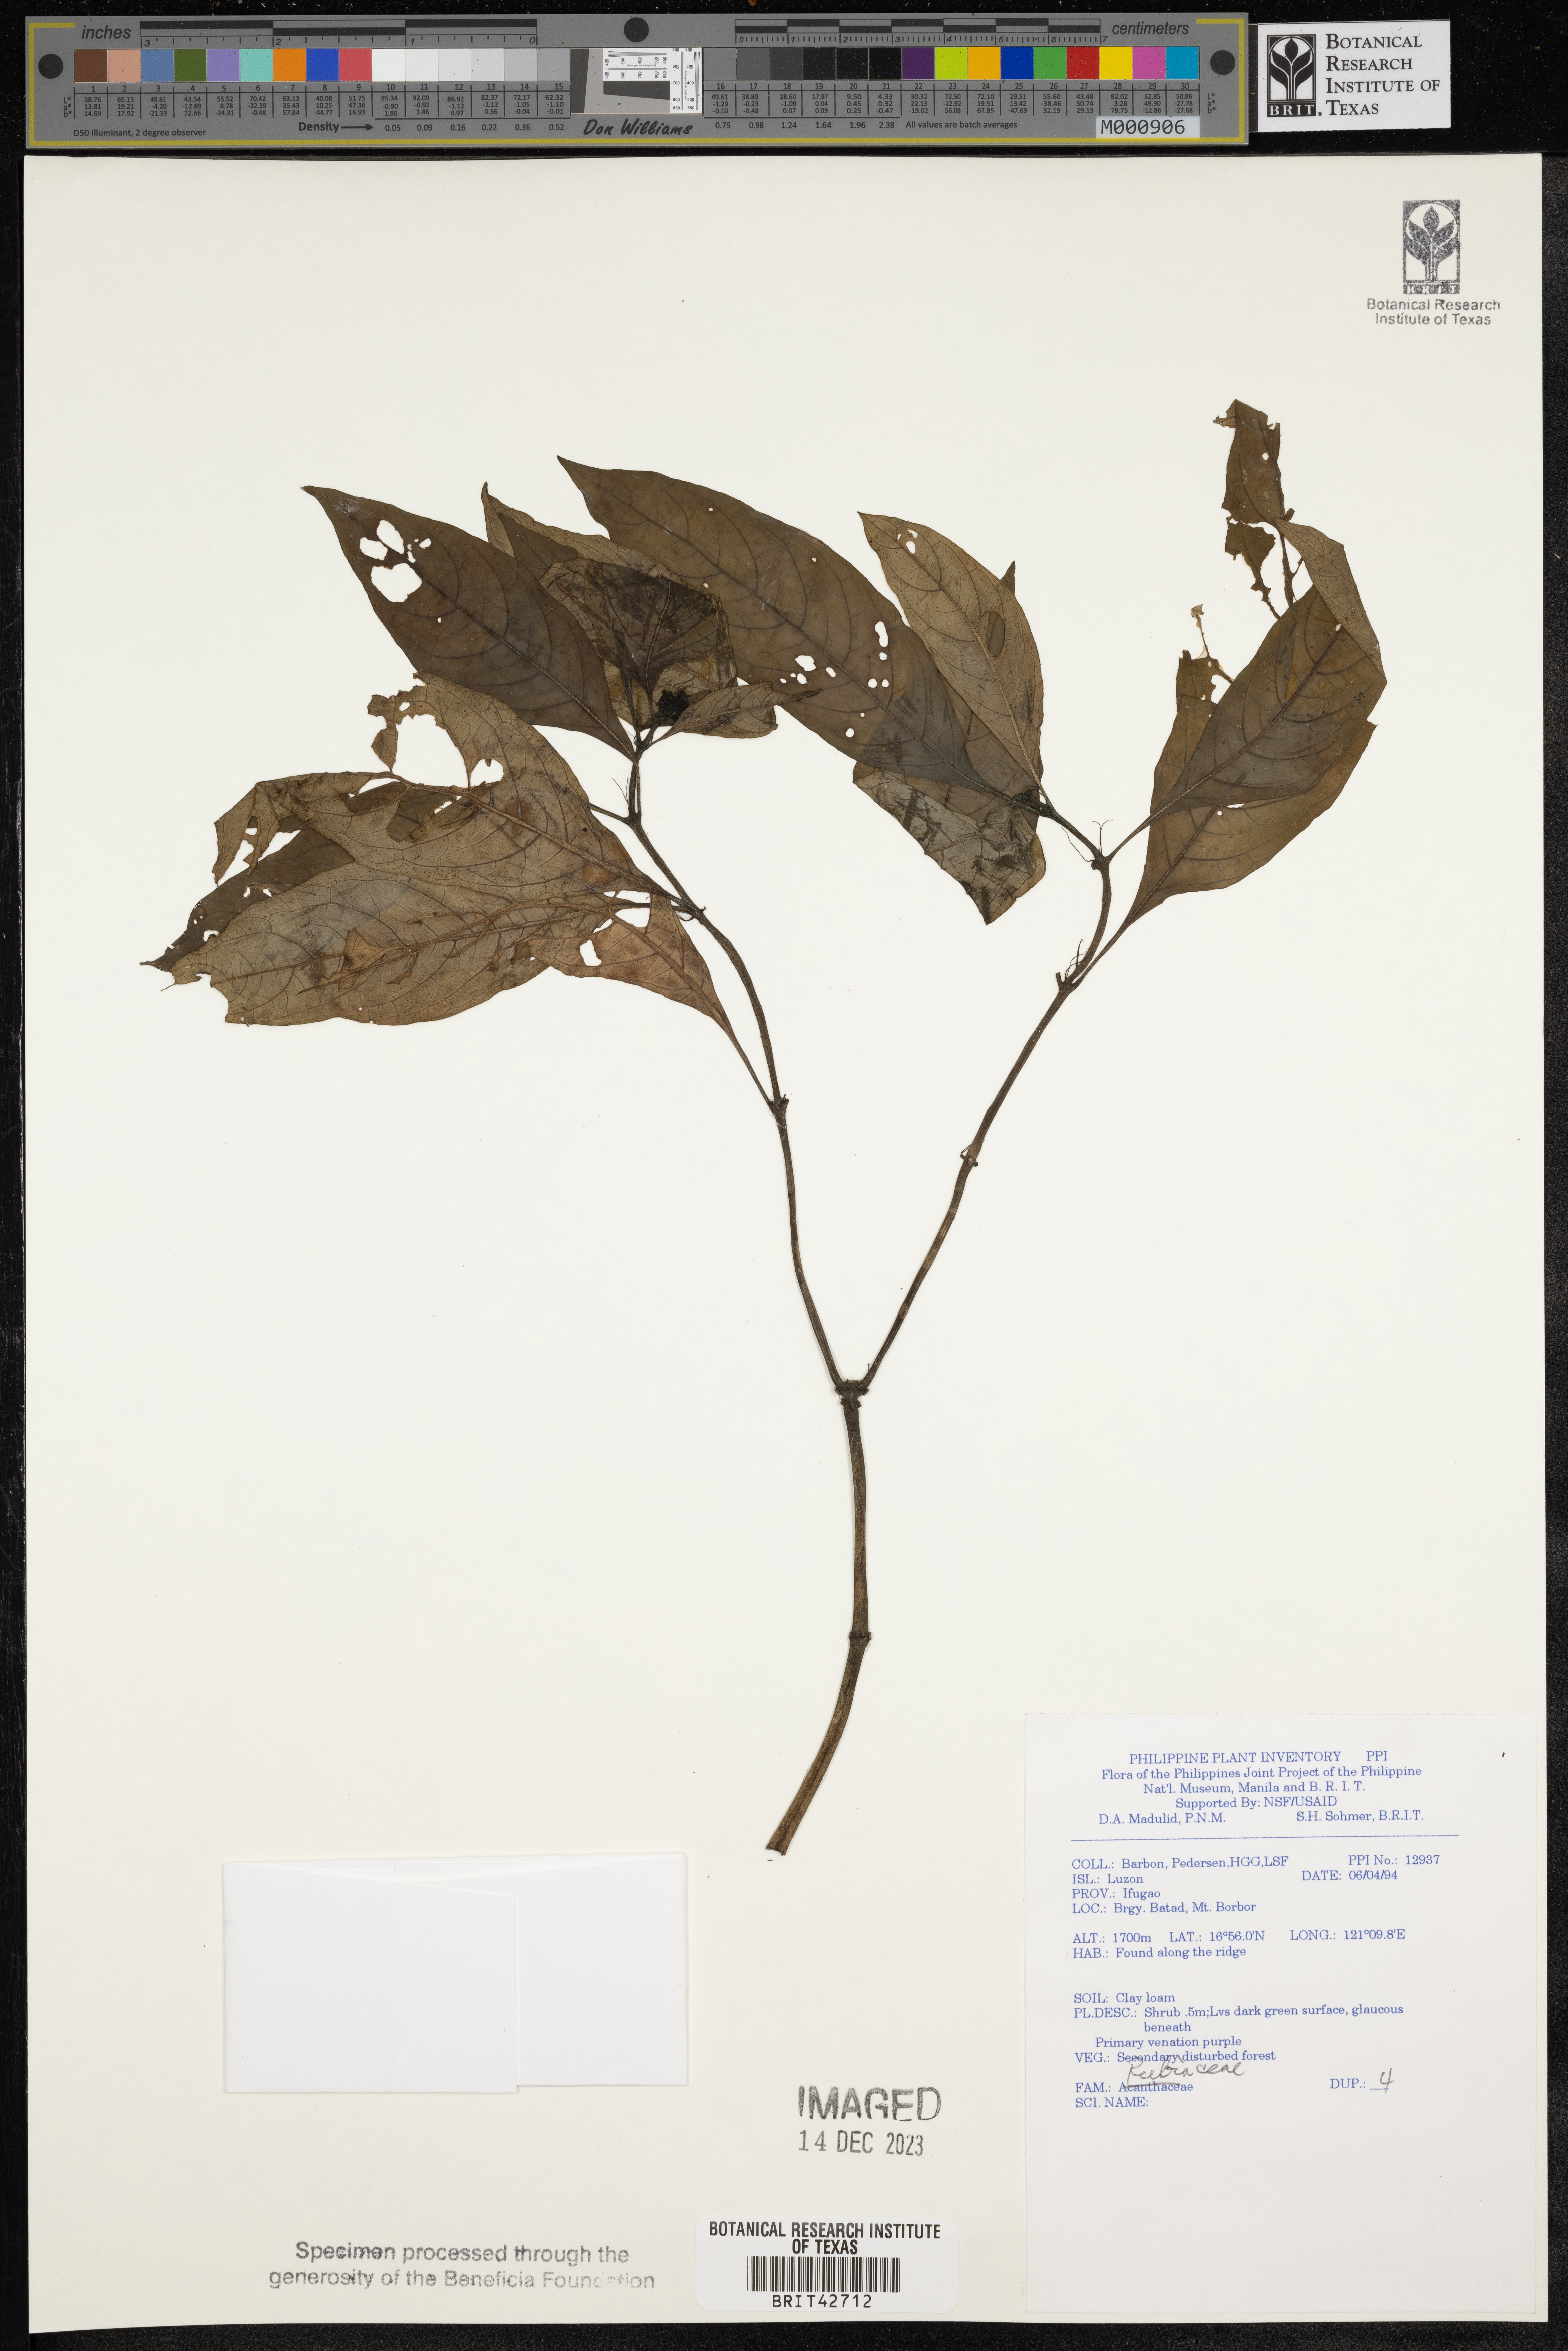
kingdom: Plantae
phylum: Tracheophyta
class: Magnoliopsida
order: Gentianales
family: Rubiaceae
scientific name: Rubiaceae
